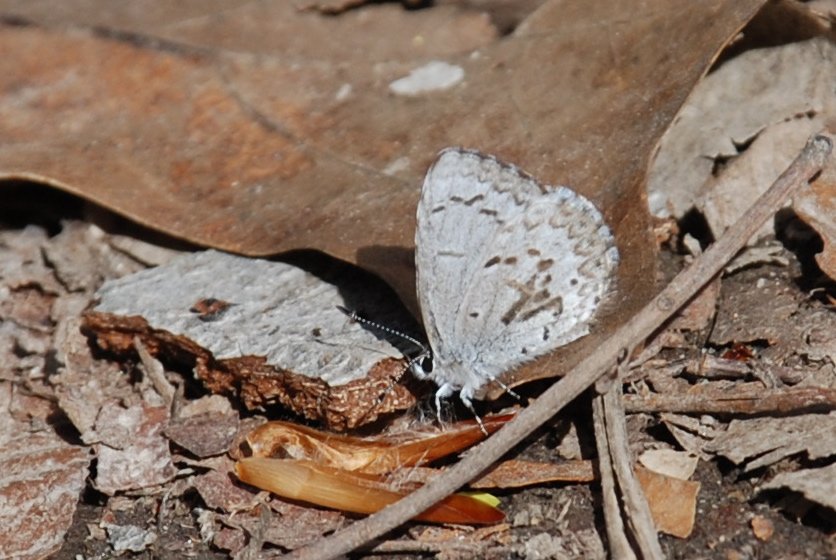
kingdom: Animalia
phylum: Arthropoda
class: Insecta
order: Lepidoptera
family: Lycaenidae
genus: Celastrina
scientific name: Celastrina lucia
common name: Northern Spring Azure
